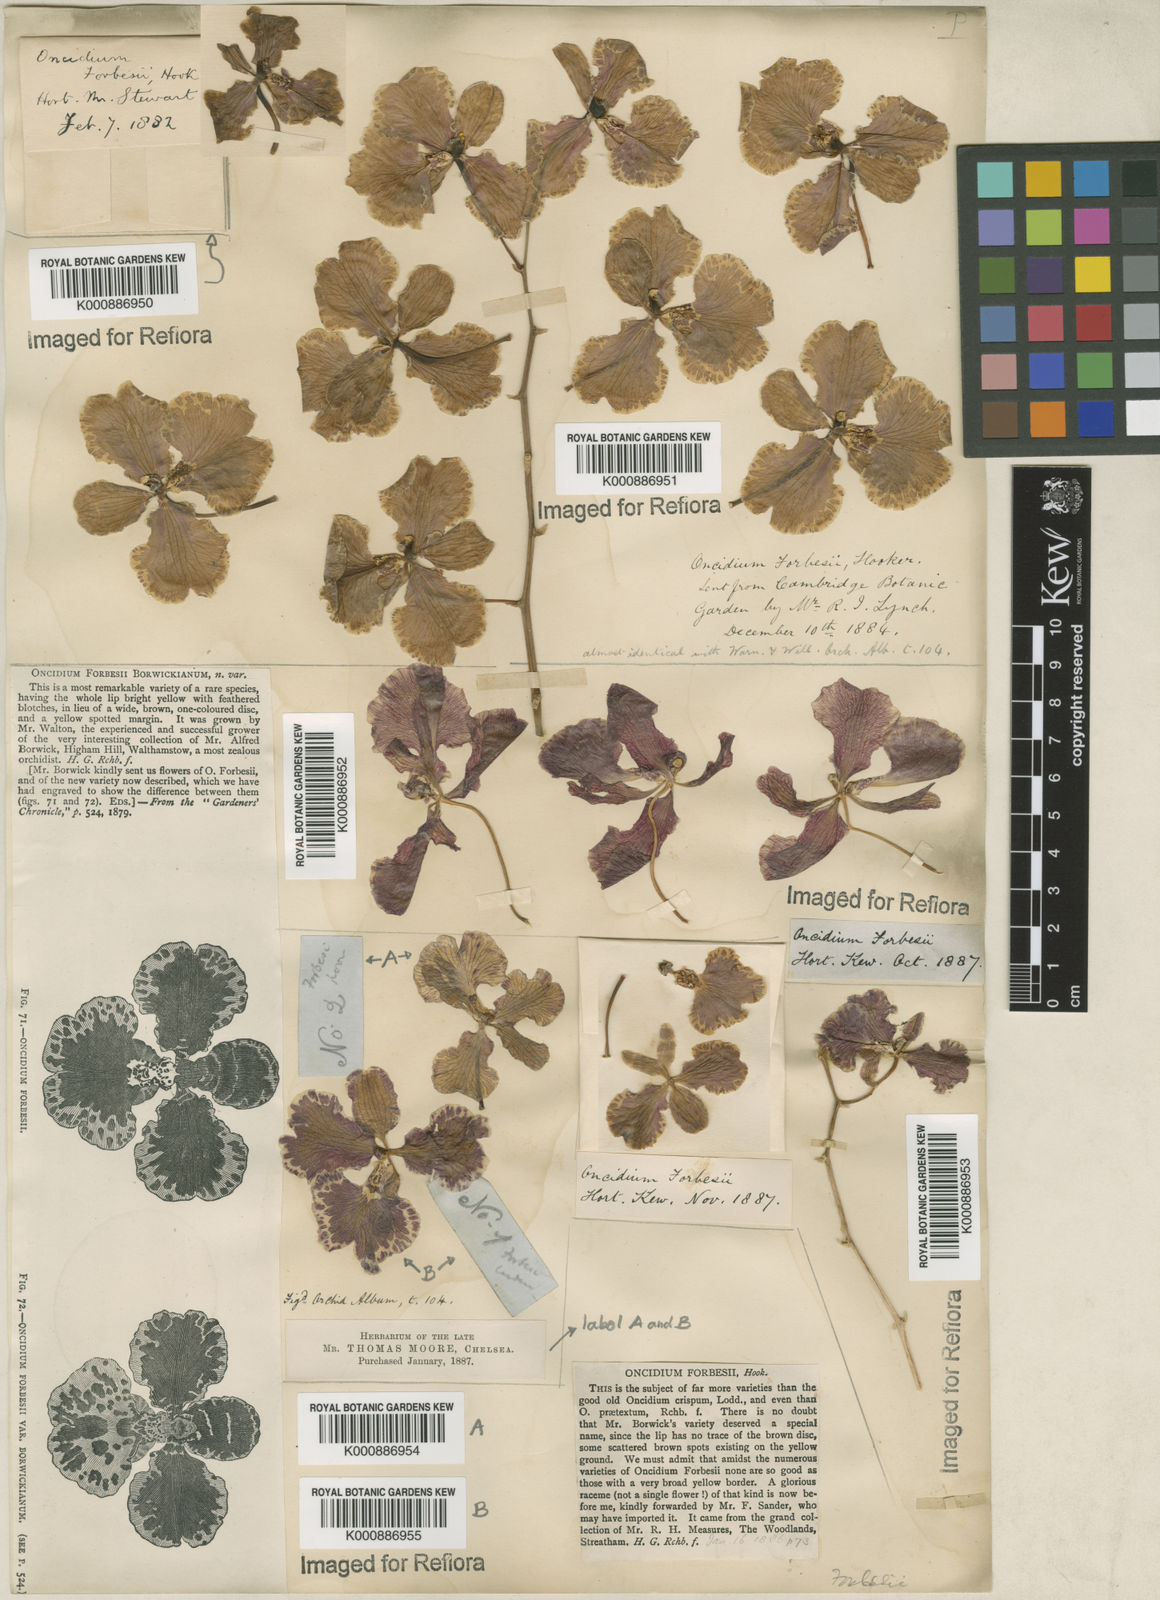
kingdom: Plantae
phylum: Tracheophyta
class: Liliopsida
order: Asparagales
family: Orchidaceae
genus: Gomesa
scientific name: Gomesa forbesii
